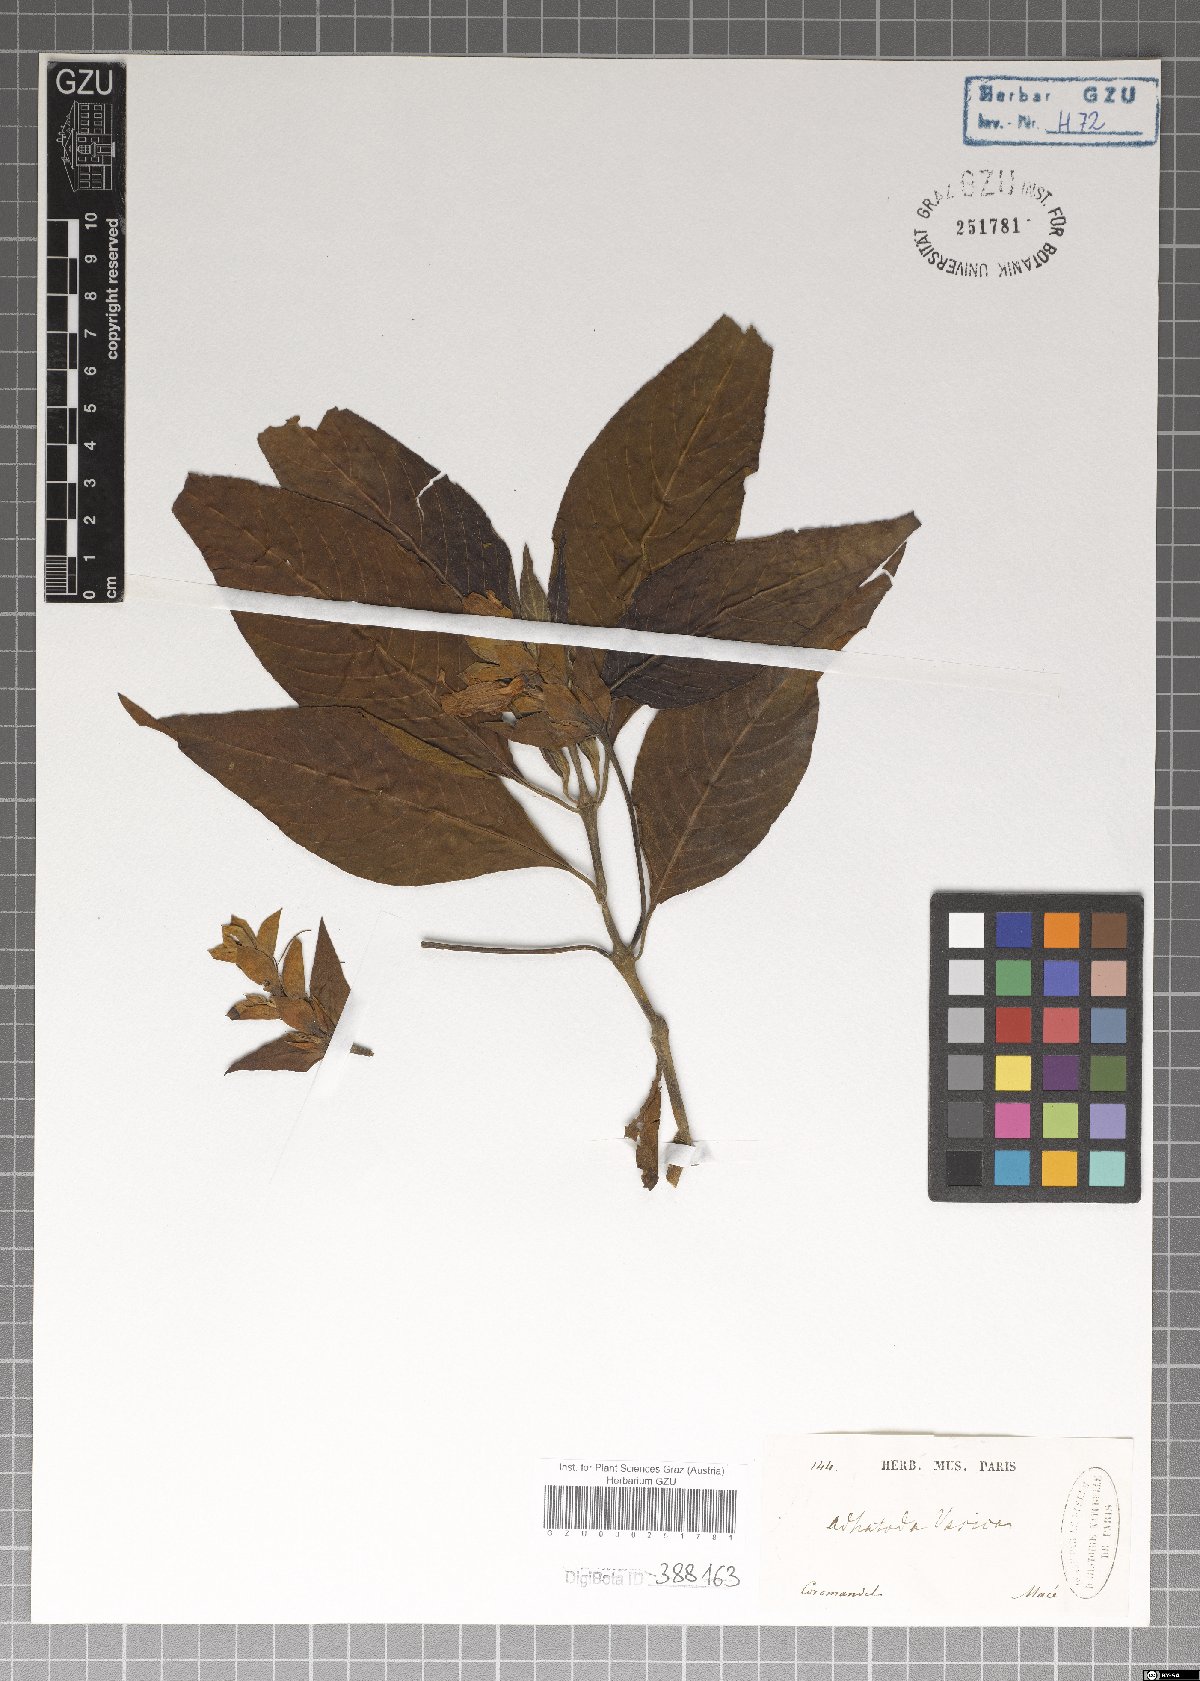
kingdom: Plantae
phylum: Tracheophyta
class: Magnoliopsida
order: Lamiales
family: Acanthaceae
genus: Justicia
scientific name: Justicia adhatoda
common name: Malabar nut
